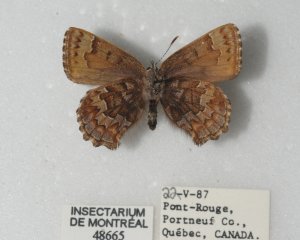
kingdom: Animalia
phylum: Arthropoda
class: Insecta
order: Lepidoptera
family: Lycaenidae
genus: Incisalia
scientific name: Incisalia niphon
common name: Eastern Pine Elfin
